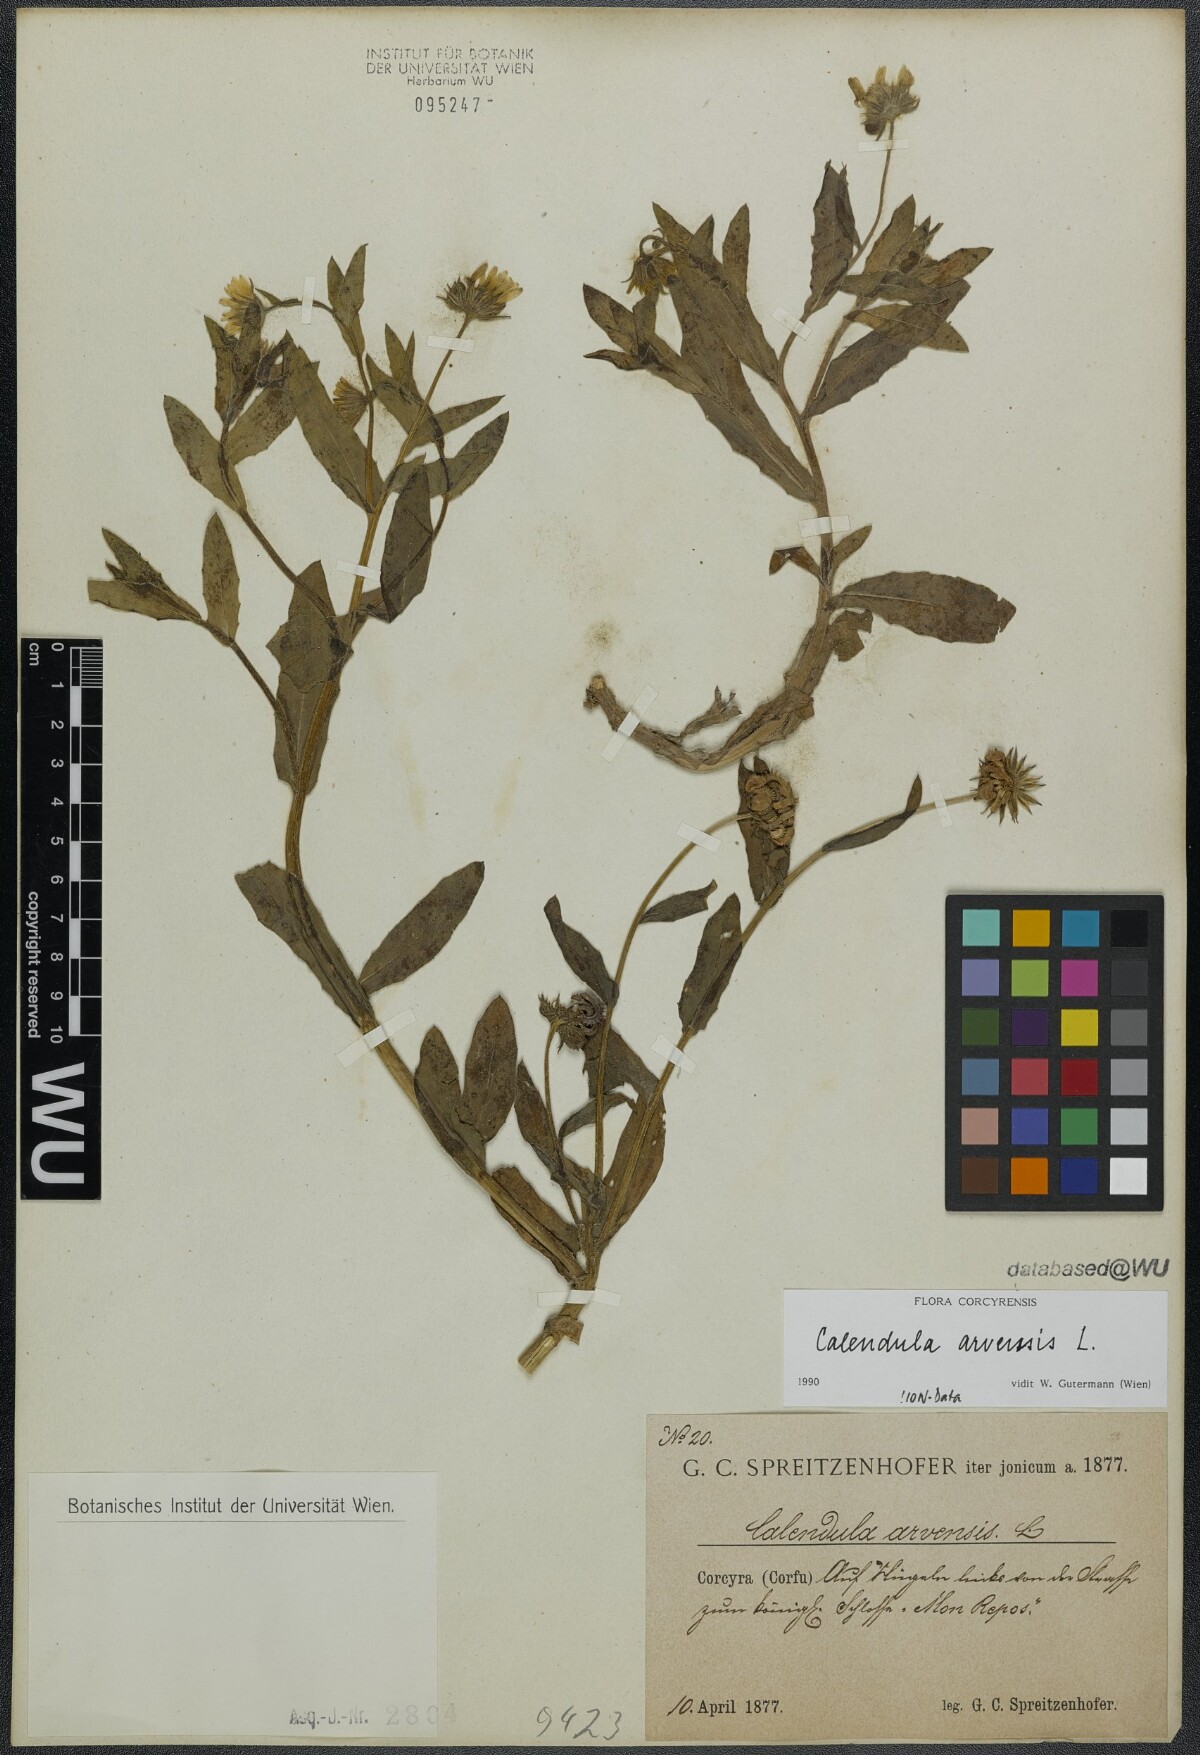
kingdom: Plantae
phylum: Tracheophyta
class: Magnoliopsida
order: Asterales
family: Asteraceae
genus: Calendula
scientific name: Calendula arvensis
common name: Field marigold
